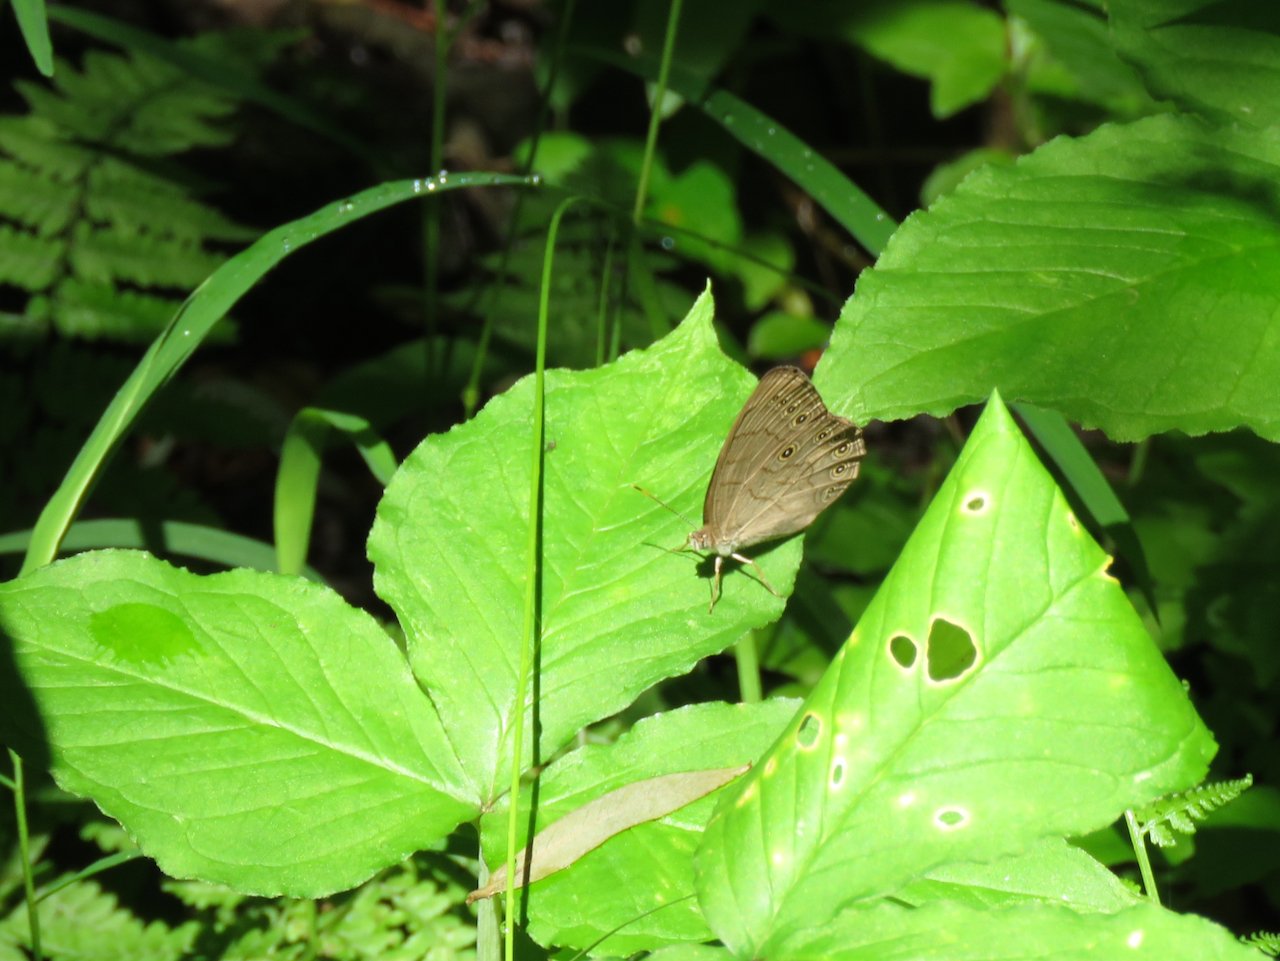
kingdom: Animalia
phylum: Arthropoda
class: Insecta
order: Lepidoptera
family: Nymphalidae
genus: Lethe
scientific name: Lethe eurydice
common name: Appalachian Eyed Brown
